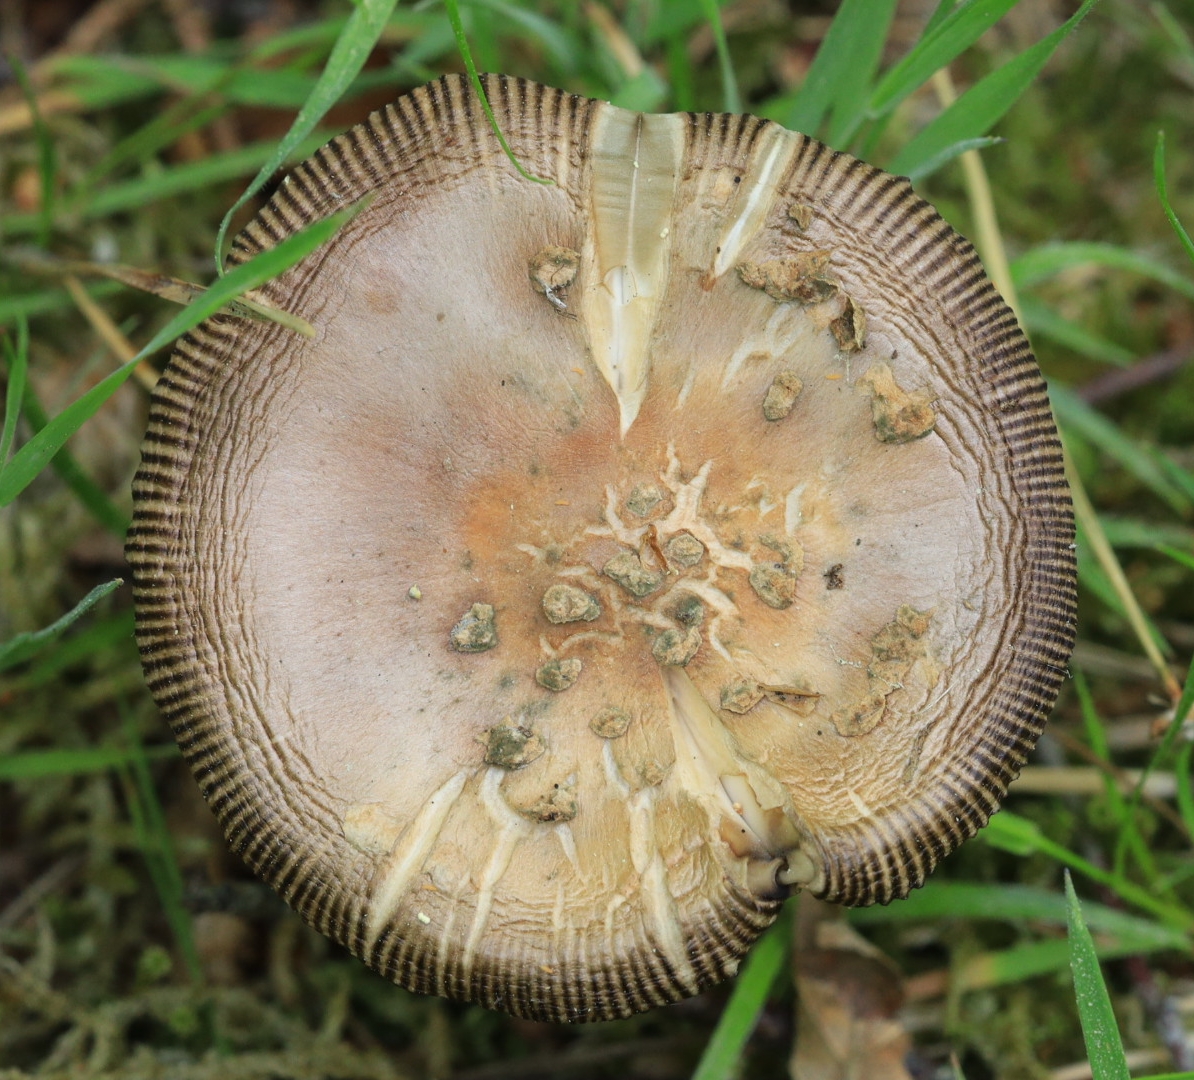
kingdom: Fungi
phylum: Basidiomycota
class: Agaricomycetes
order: Agaricales
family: Amanitaceae
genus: Amanita
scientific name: Amanita
